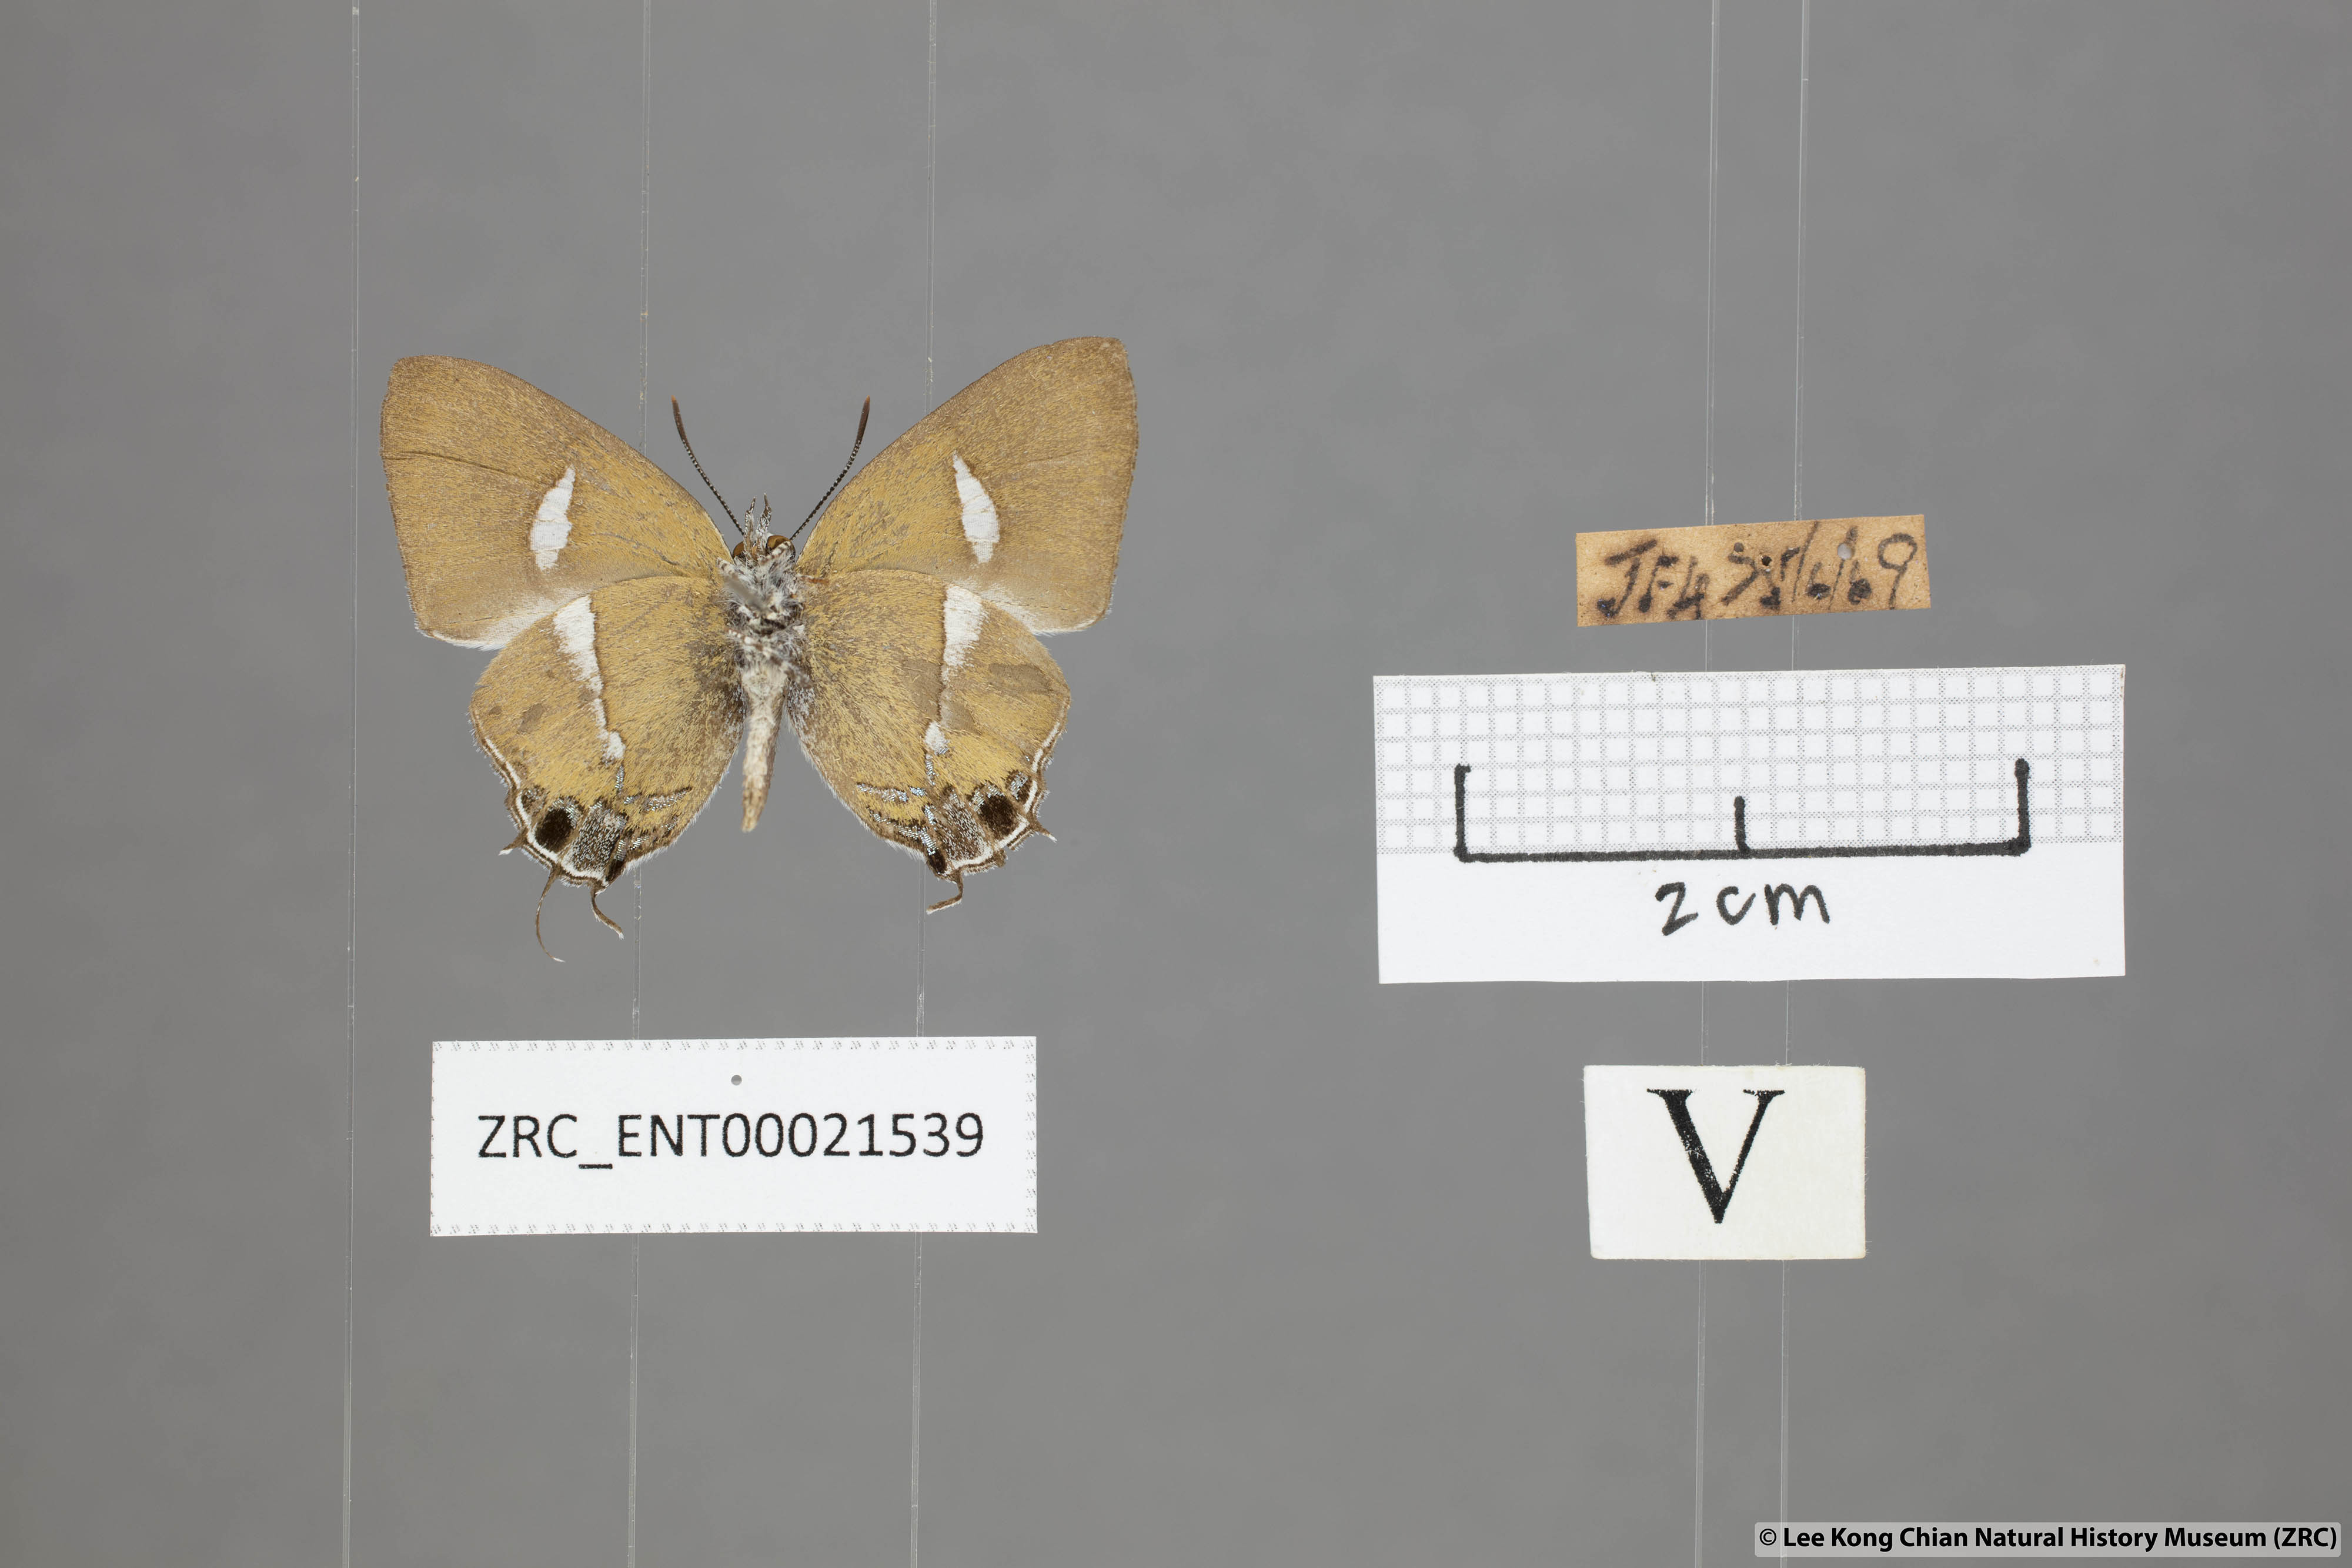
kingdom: Animalia
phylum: Arthropoda
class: Insecta
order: Lepidoptera
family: Lycaenidae
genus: Horaga
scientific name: Horaga syrinx
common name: Ambon onyx
